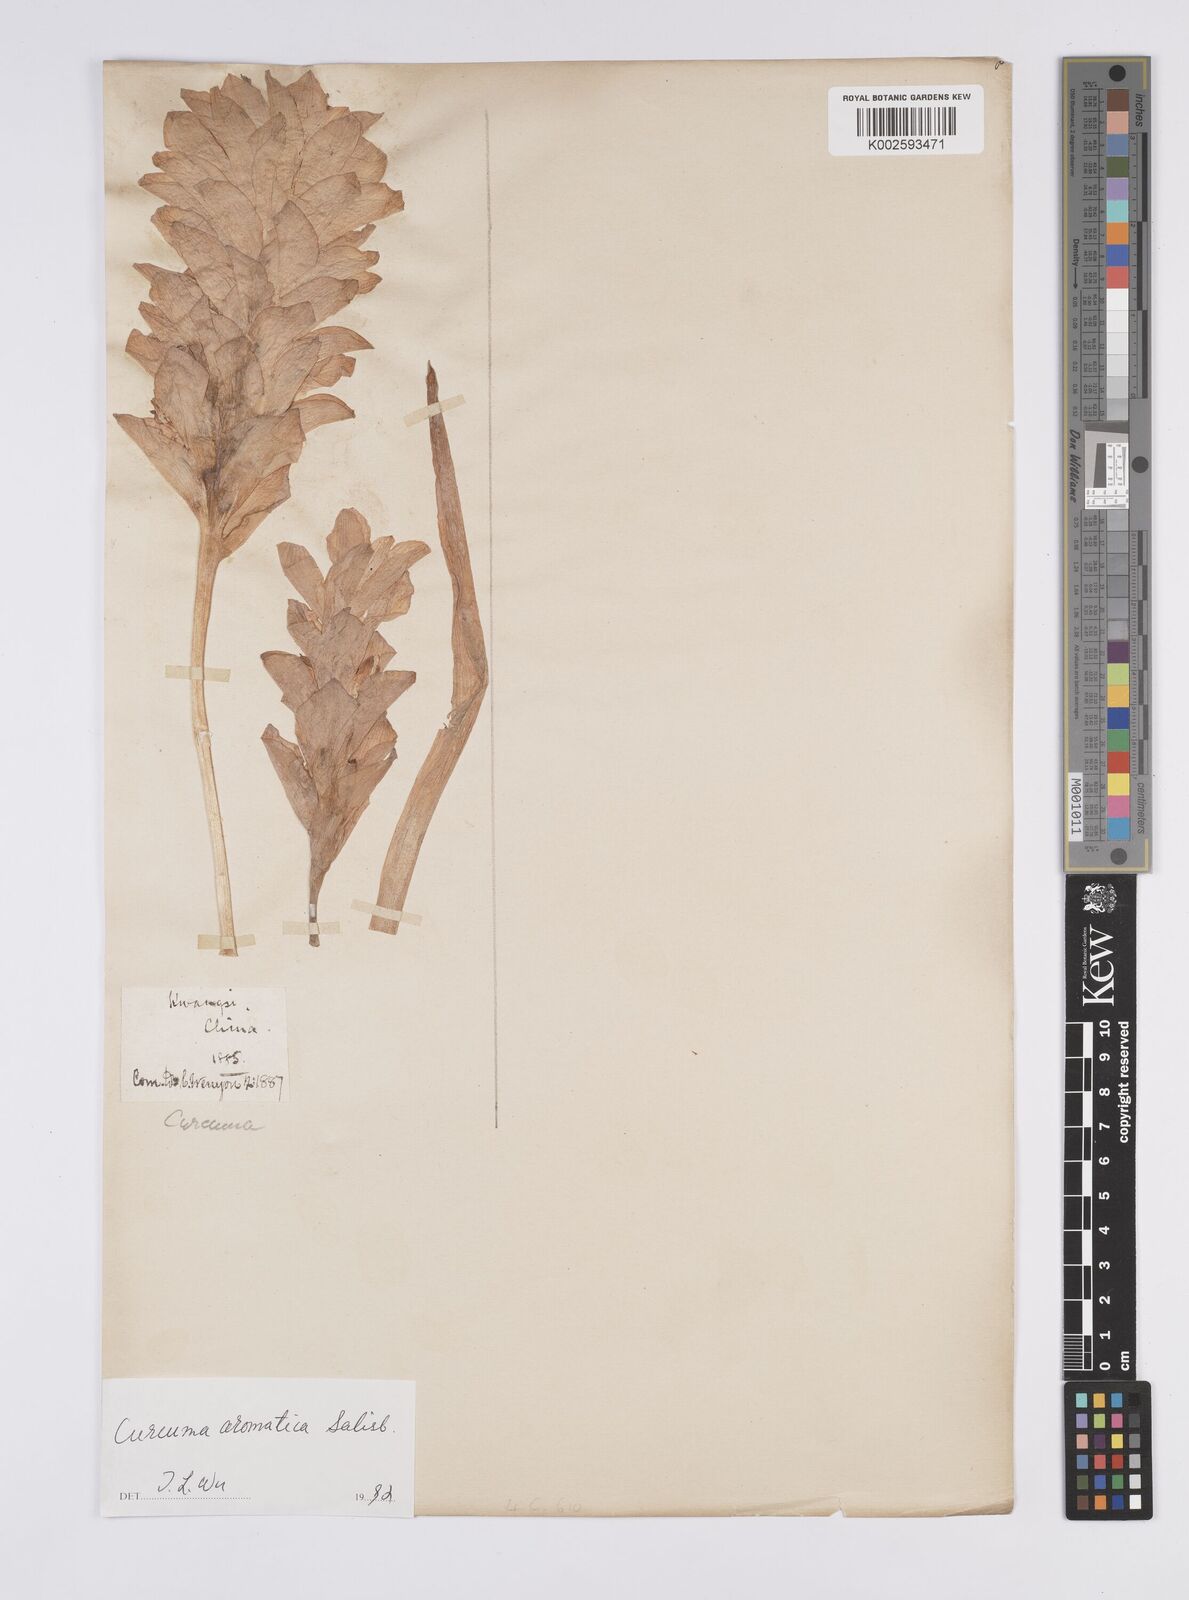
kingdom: Plantae
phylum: Tracheophyta
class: Liliopsida
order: Zingiberales
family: Zingiberaceae
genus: Curcuma
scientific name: Curcuma aromatica
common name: Wild turmeric
